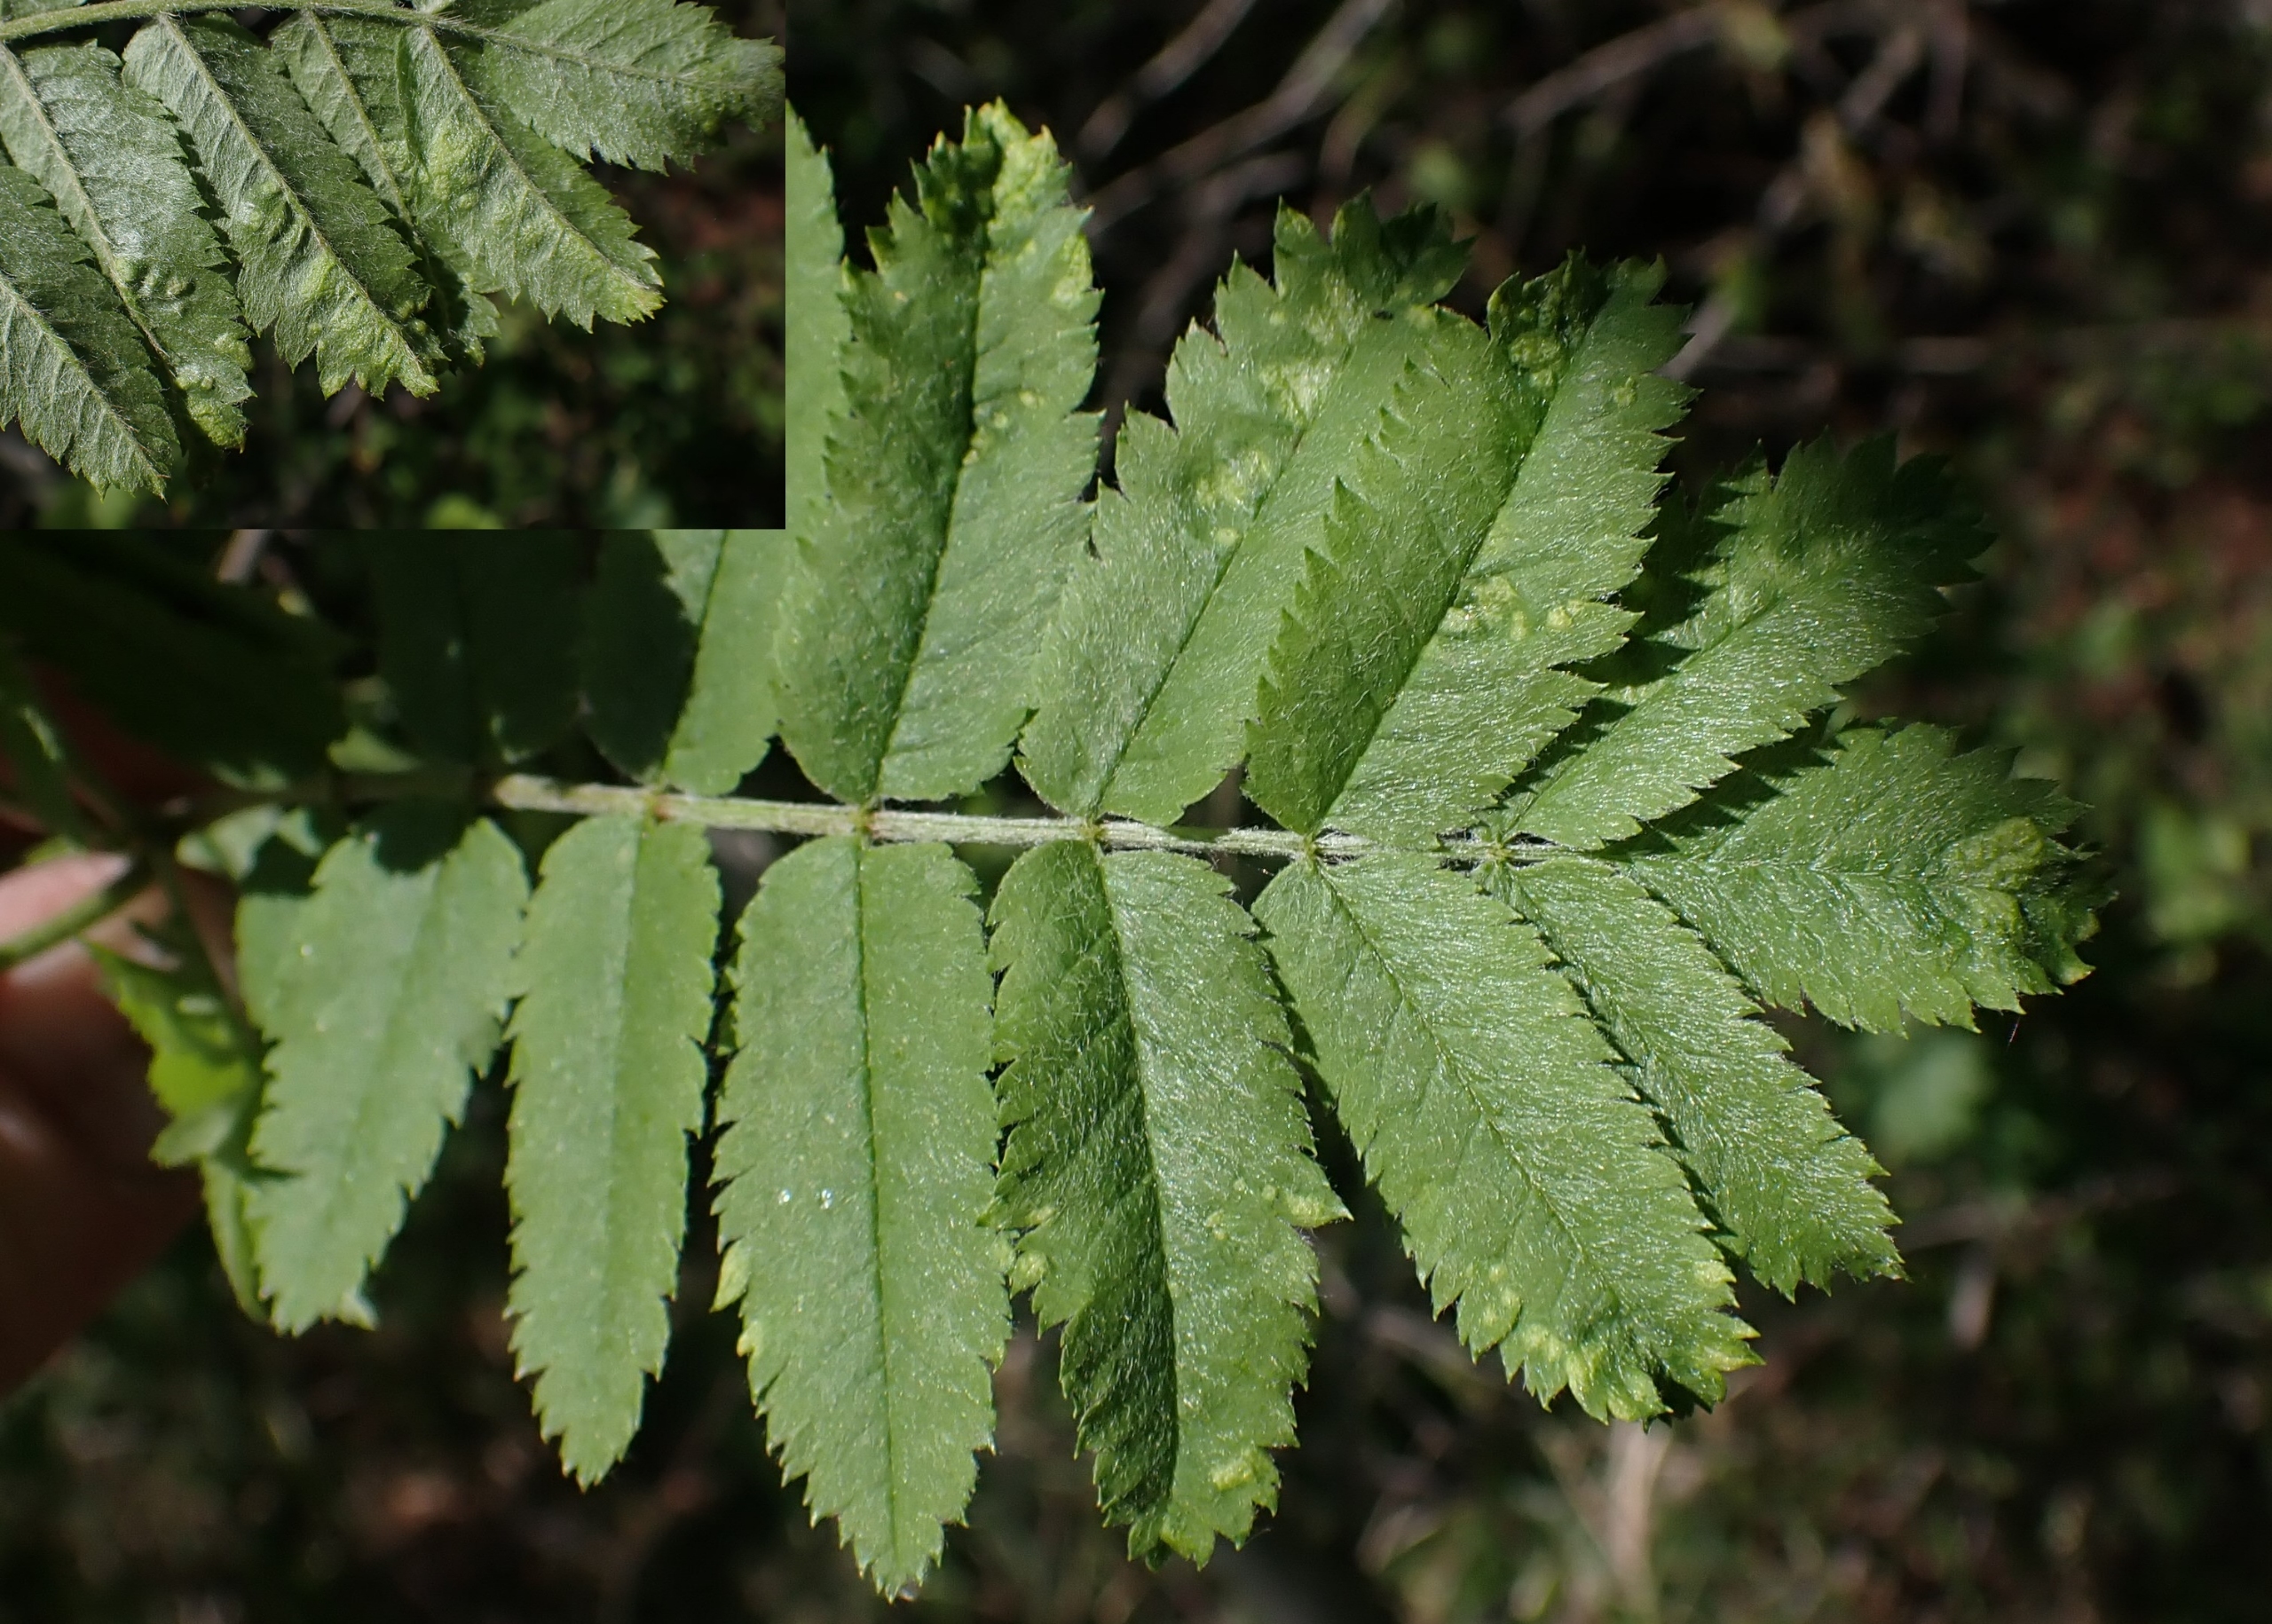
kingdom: Animalia
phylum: Arthropoda
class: Arachnida
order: Trombidiformes
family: Eriophyidae
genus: Eriophyes
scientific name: Eriophyes pyri
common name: Pærebladgalmide
